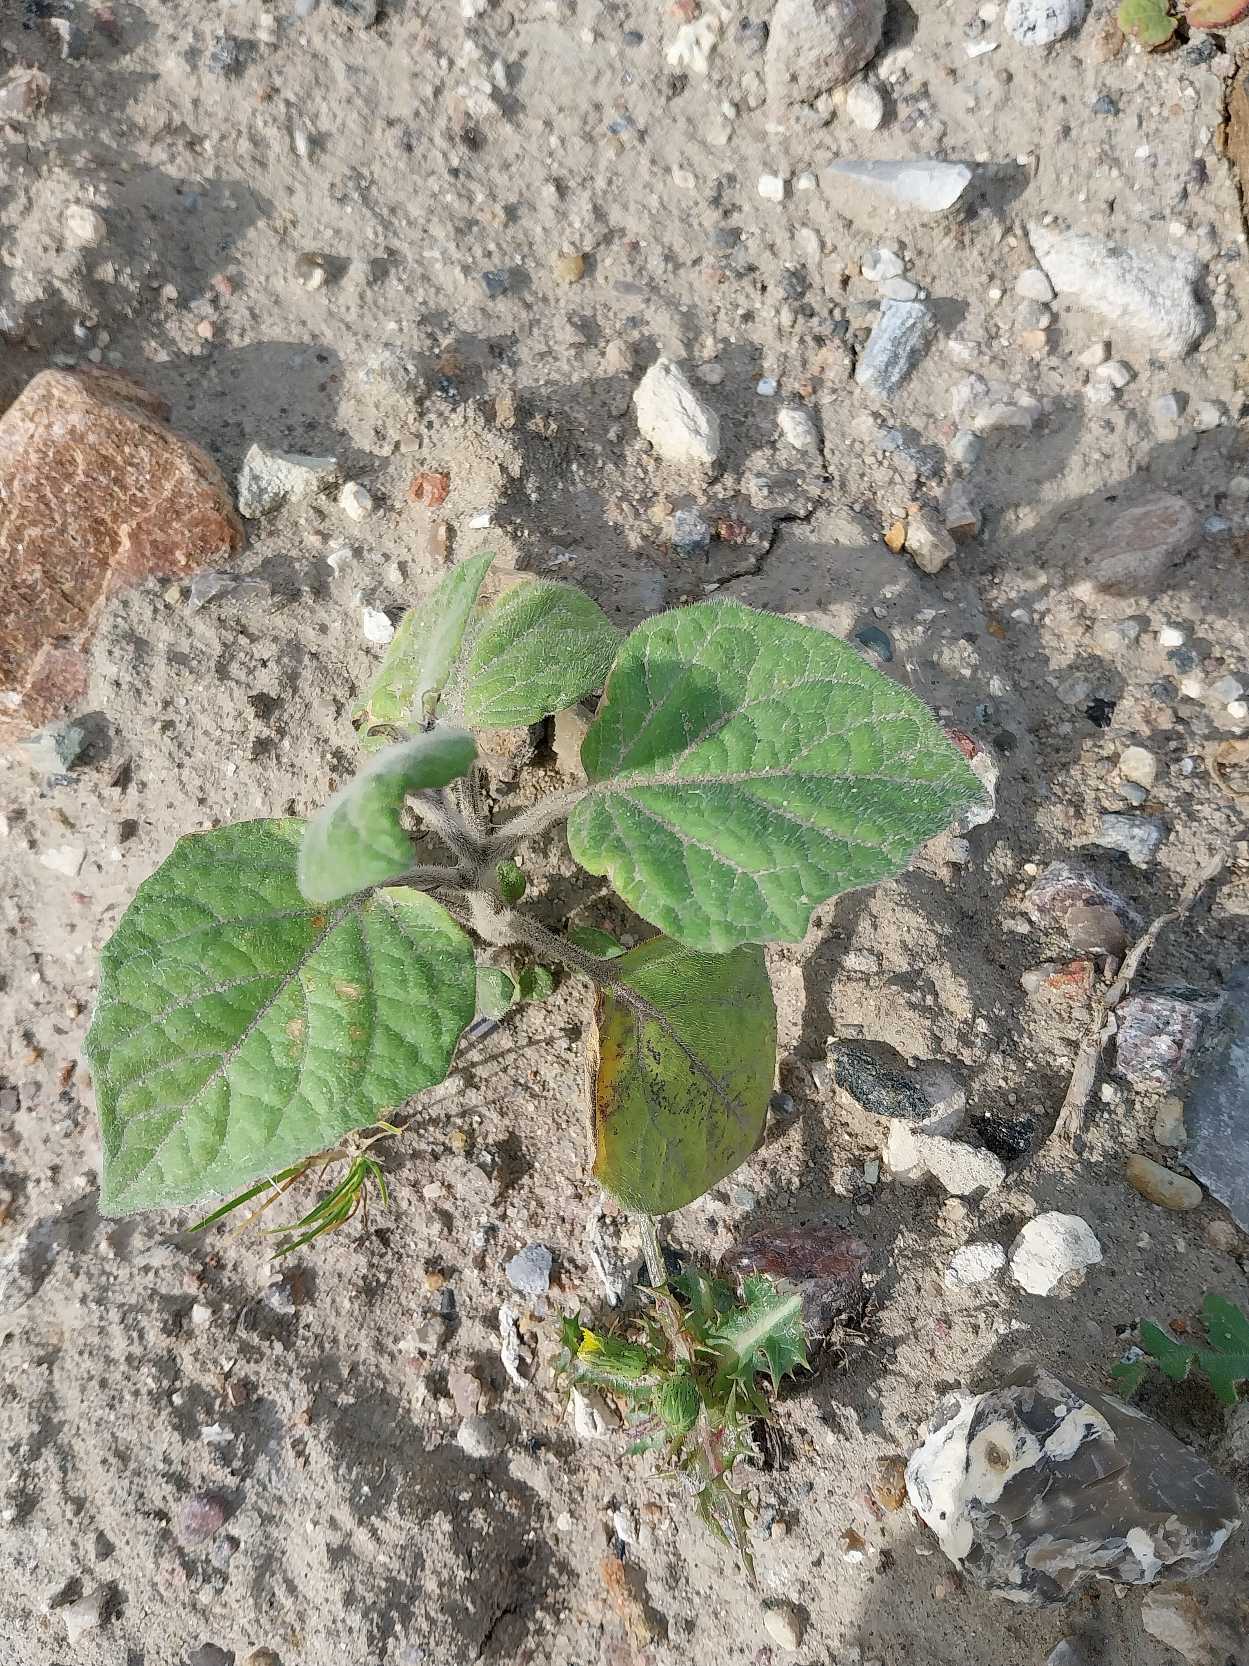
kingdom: Plantae
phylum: Tracheophyta
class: Magnoliopsida
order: Solanales
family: Solanaceae
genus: Physalis
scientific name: Physalis peruviana
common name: Ananaskirsebær
